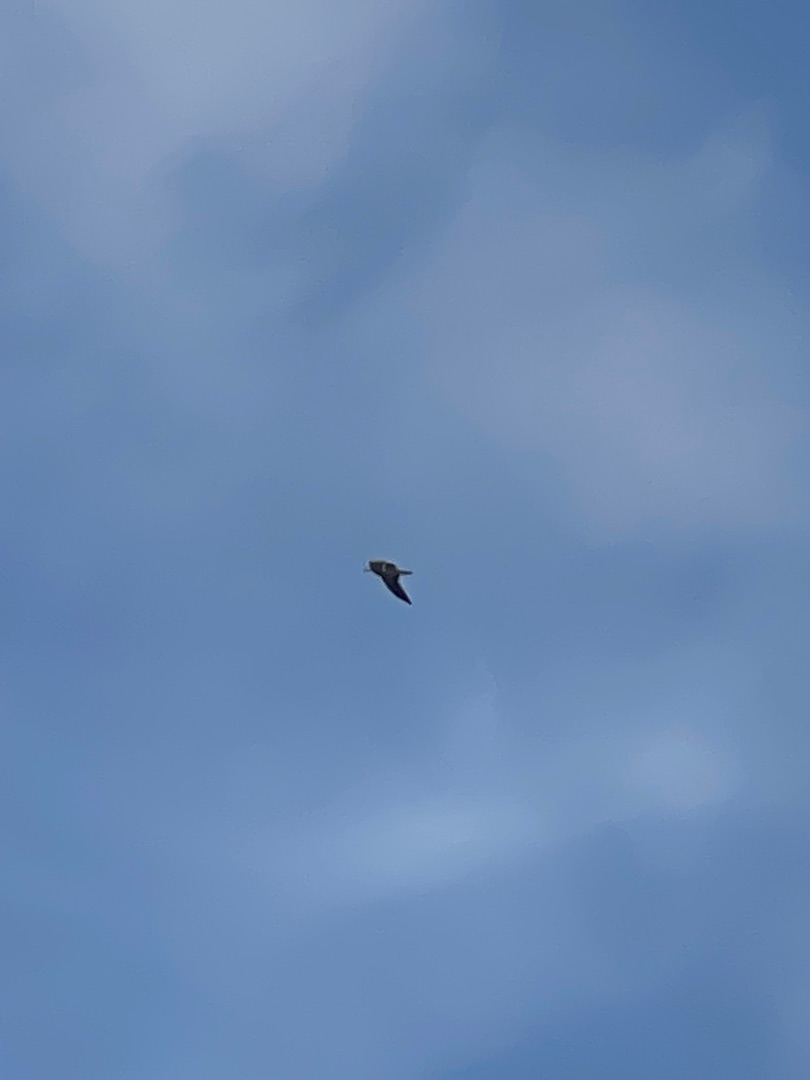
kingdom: Animalia
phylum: Chordata
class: Aves
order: Charadriiformes
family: Laridae
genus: Larus
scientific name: Larus marinus
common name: Svartbag
